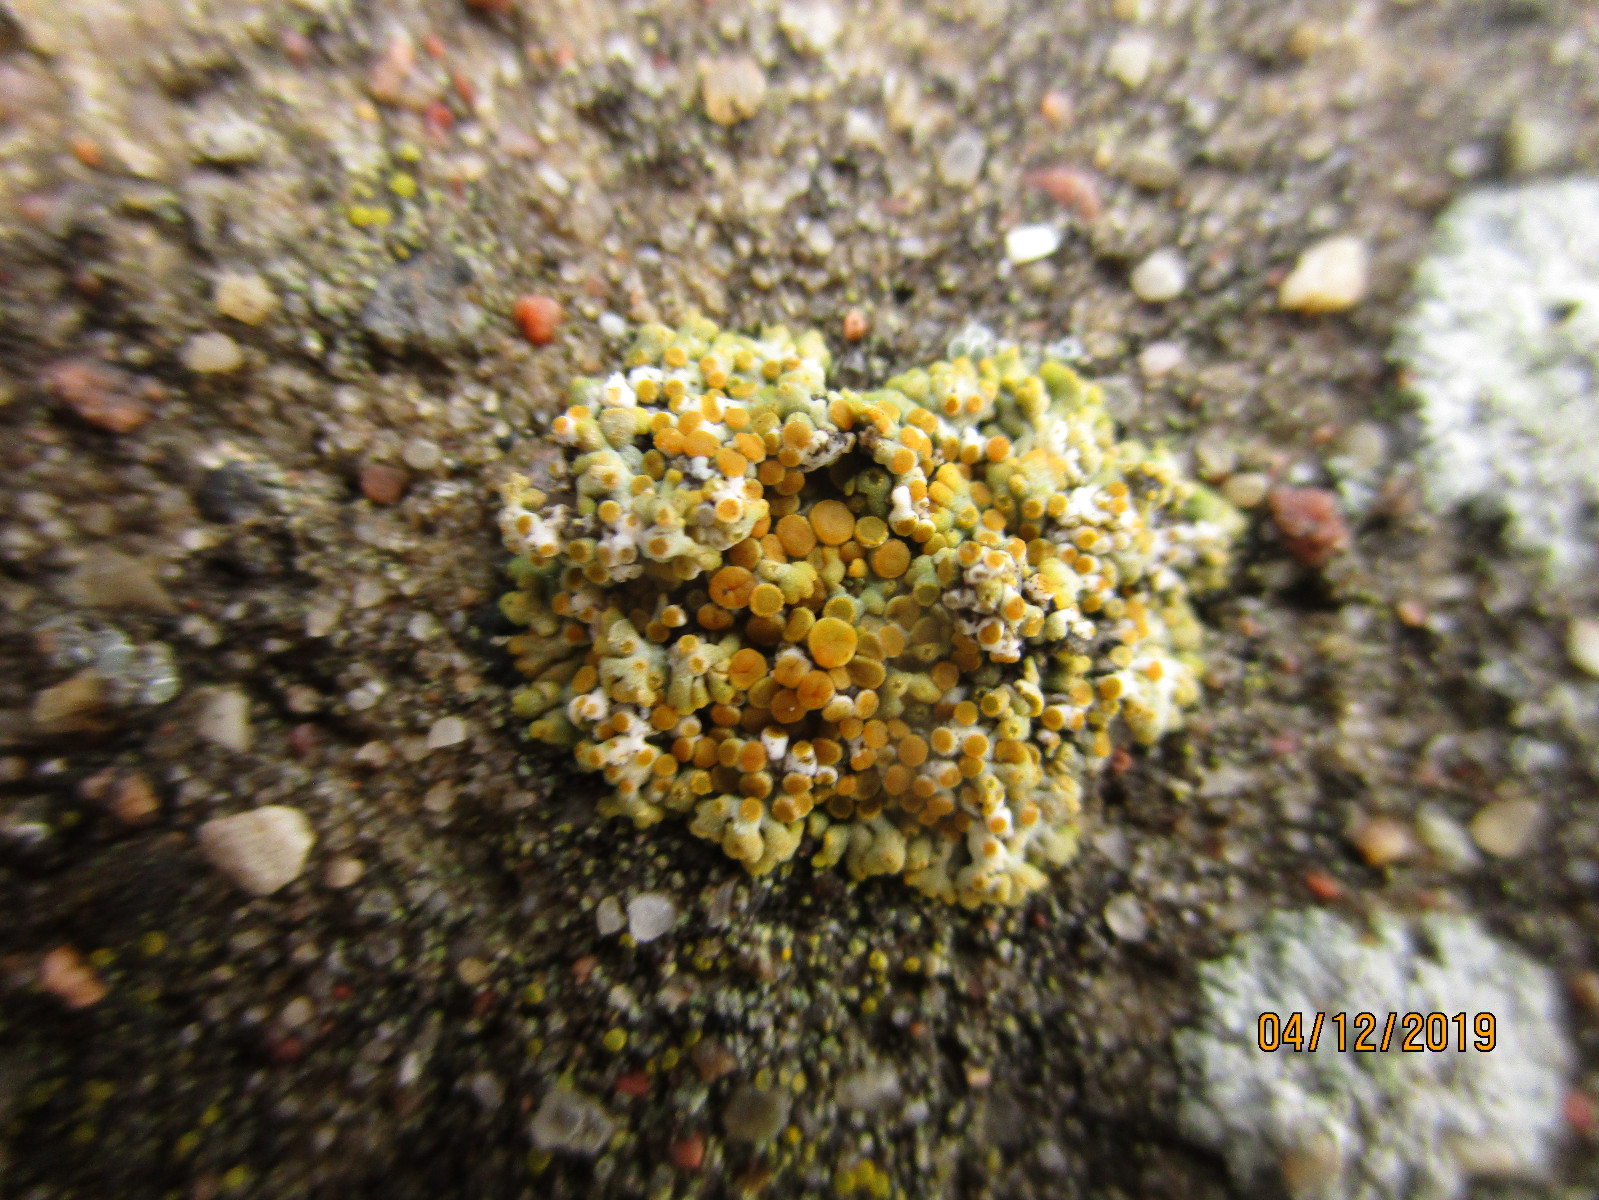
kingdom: Fungi
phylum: Ascomycota
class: Lecanoromycetes
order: Teloschistales
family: Teloschistaceae
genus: Calogaya
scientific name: Calogaya pusilla
